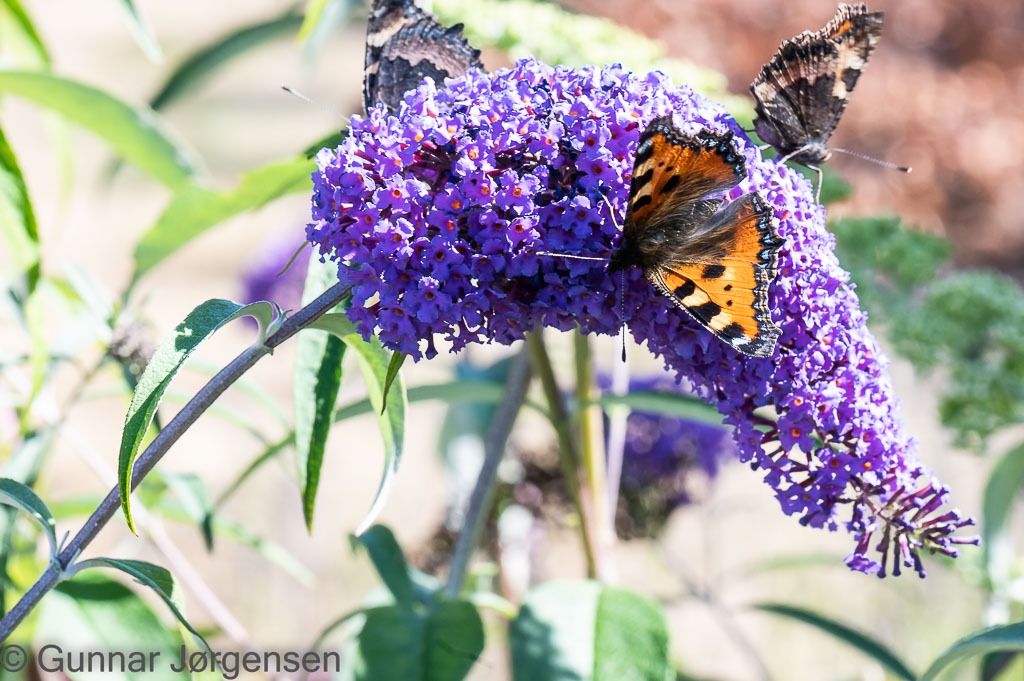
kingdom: Animalia
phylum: Arthropoda
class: Insecta
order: Lepidoptera
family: Nymphalidae
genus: Aglais
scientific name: Aglais urticae
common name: Nældens takvinge
